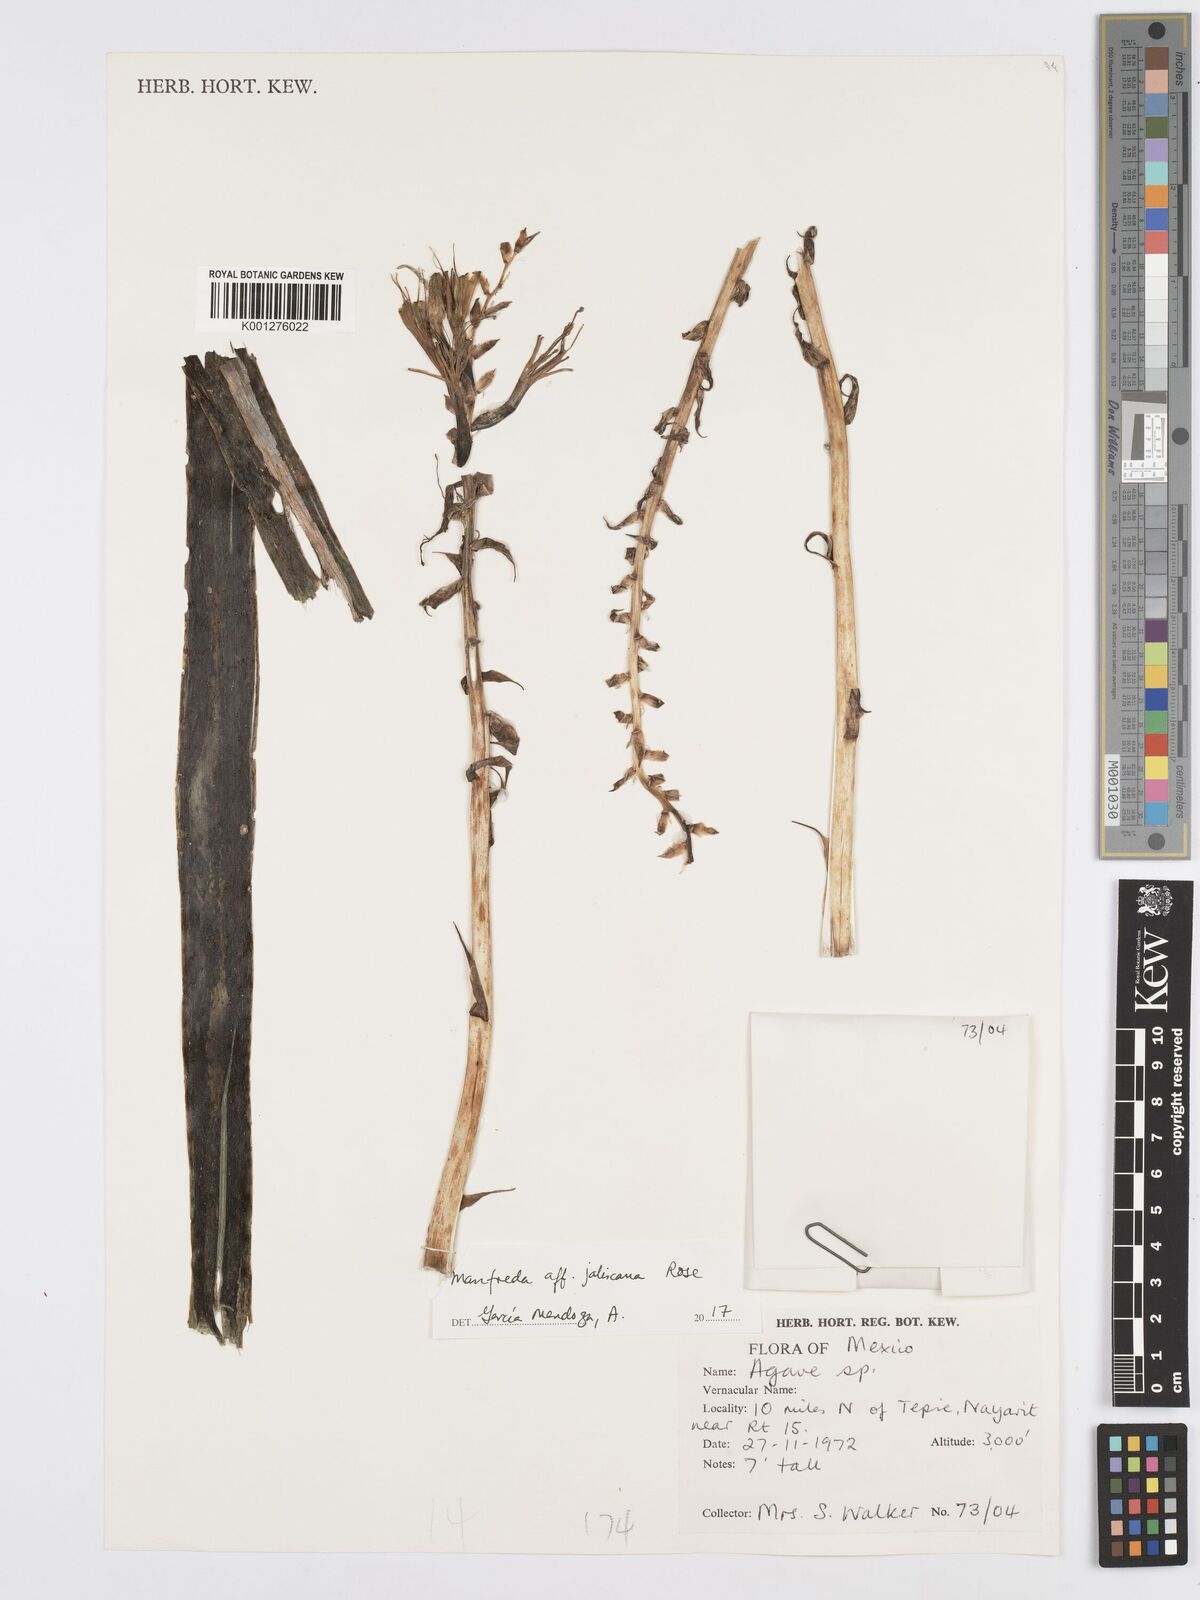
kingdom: Plantae
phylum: Tracheophyta
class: Liliopsida
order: Asparagales
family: Asparagaceae
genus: Agave
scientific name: Agave jaliscana
